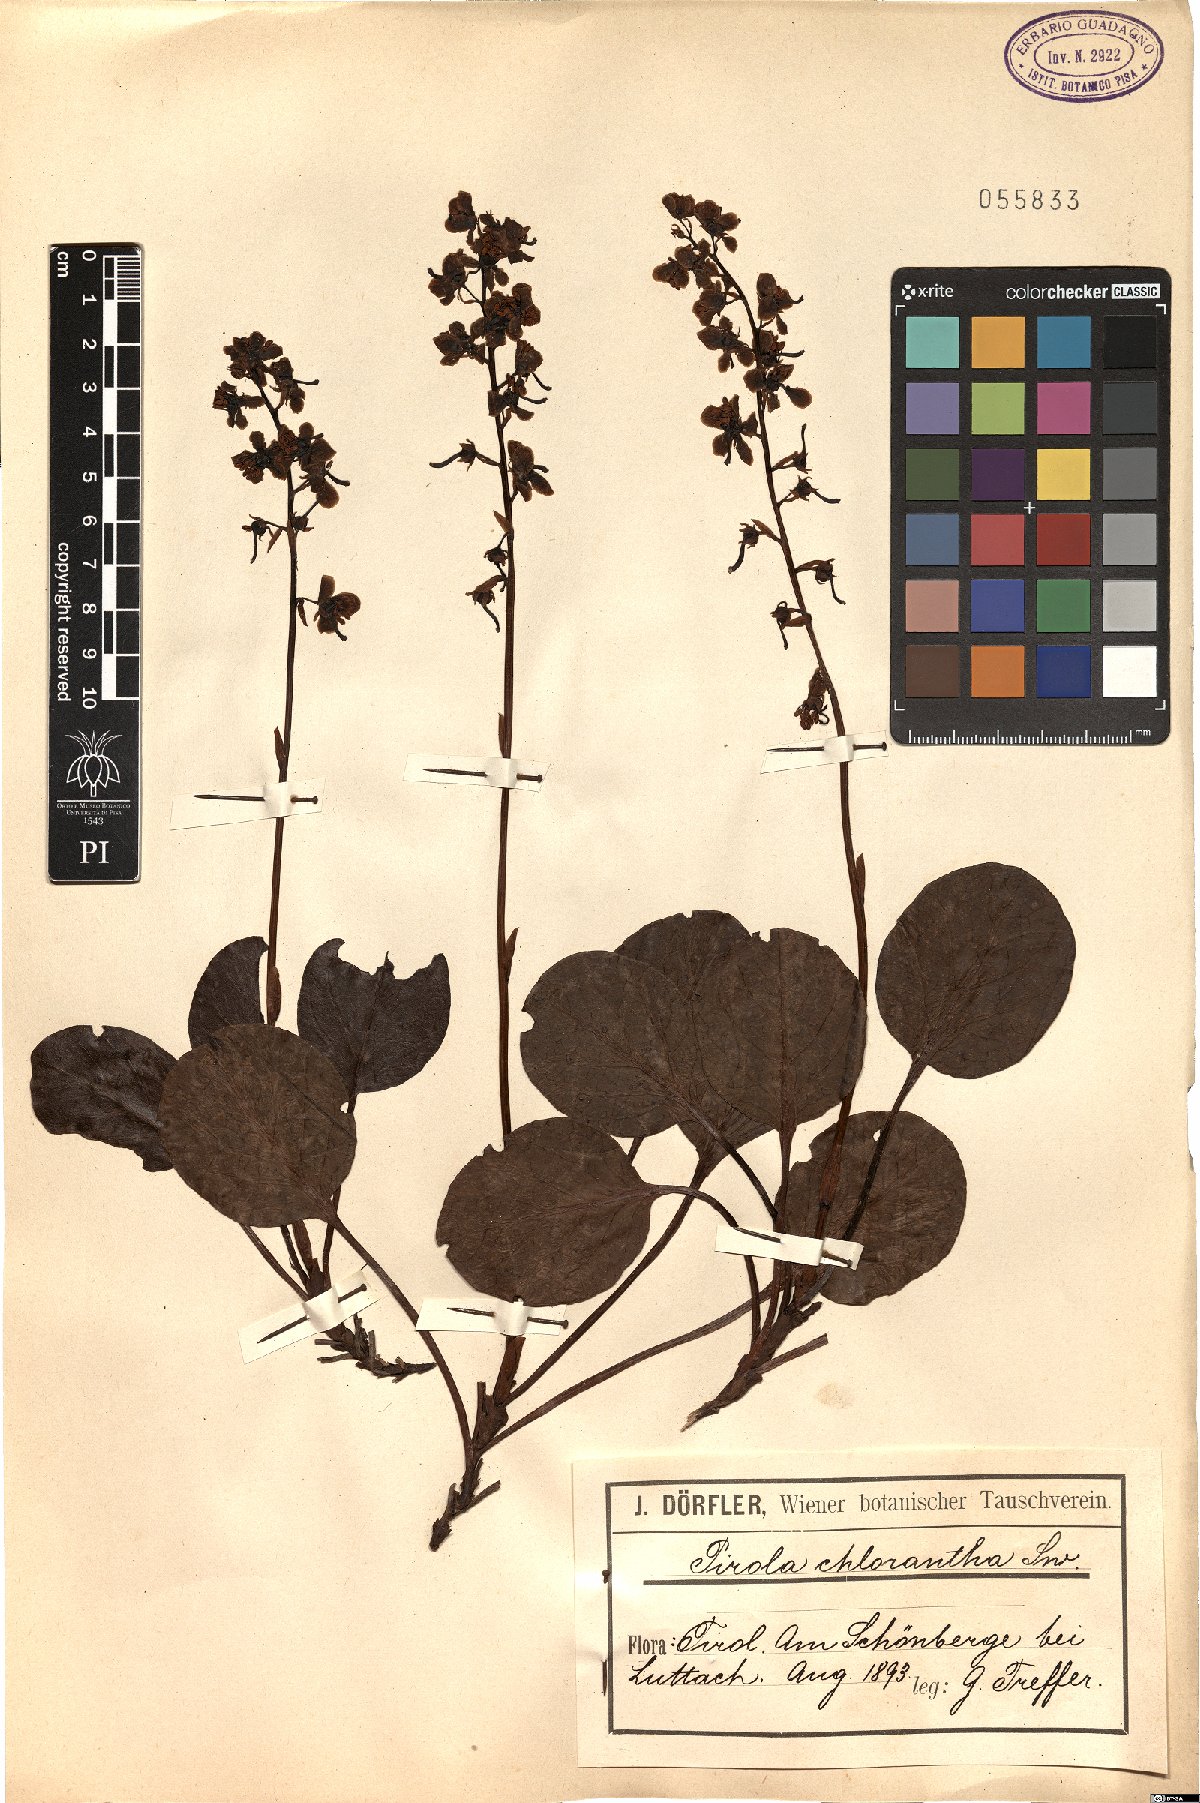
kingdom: Plantae
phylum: Tracheophyta
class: Magnoliopsida
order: Ericales
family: Ericaceae
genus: Pyrola
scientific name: Pyrola chlorantha
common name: Green wintergreen
